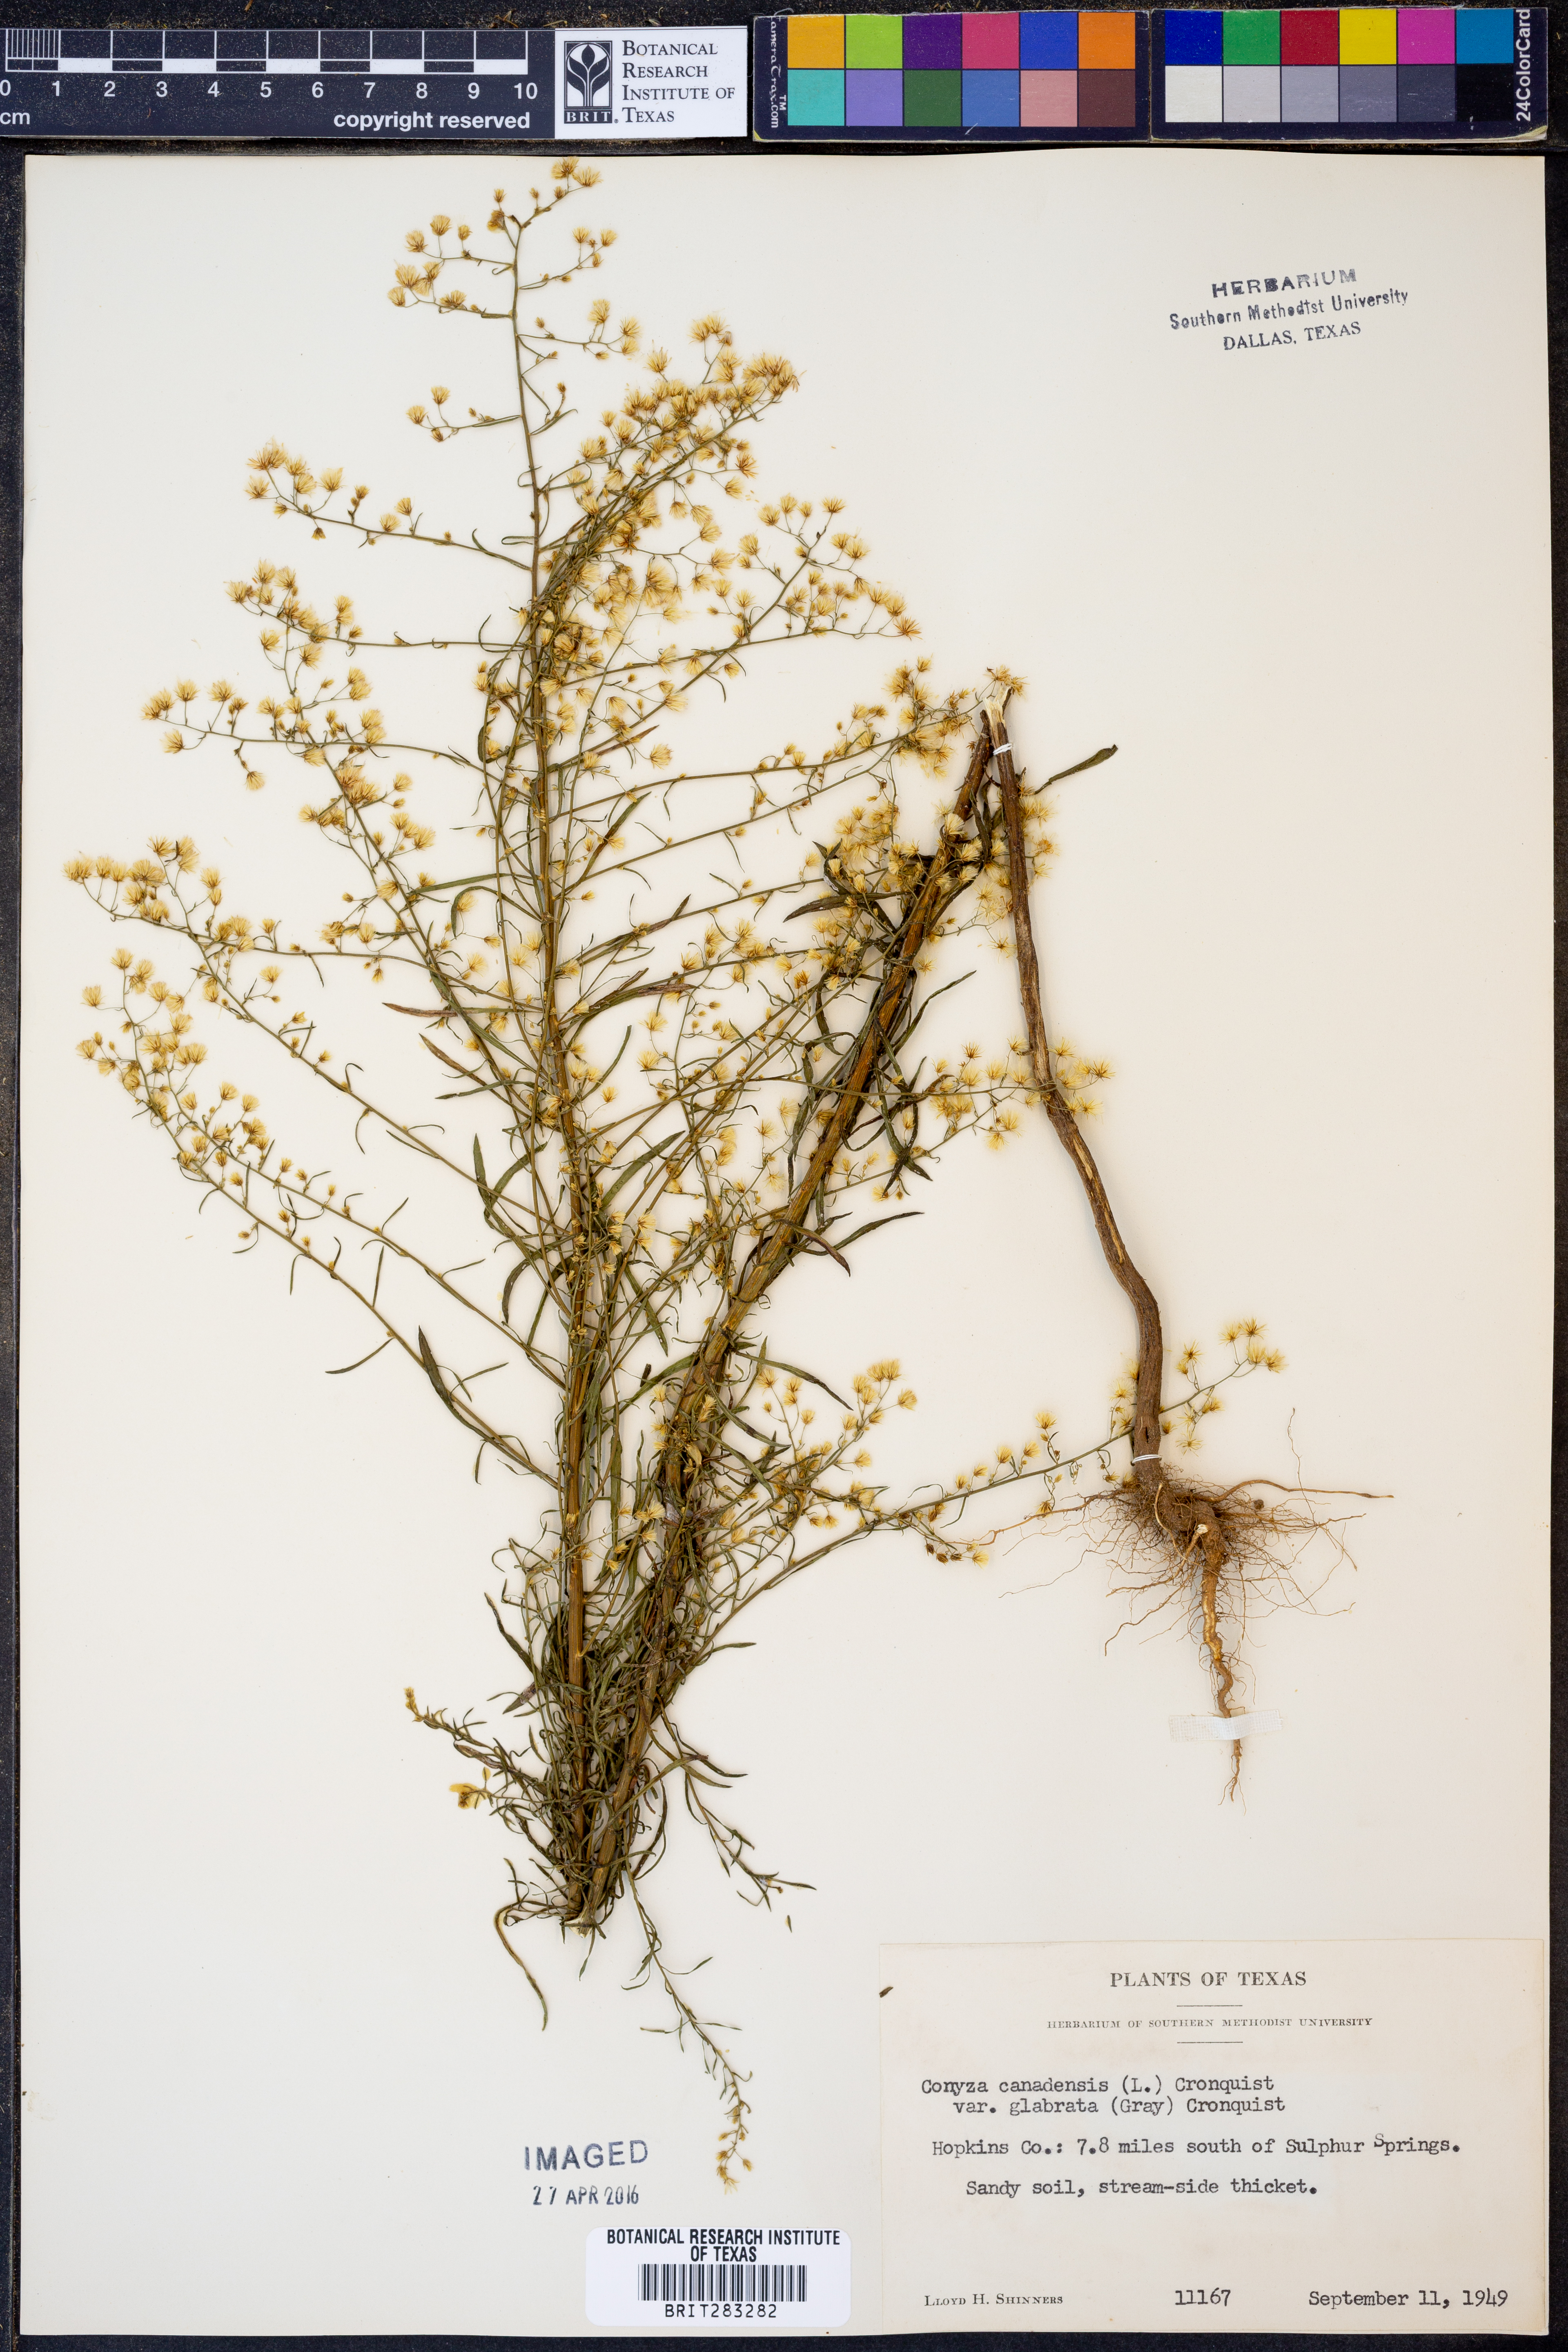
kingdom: Plantae
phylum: Tracheophyta
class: Magnoliopsida
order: Asterales
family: Asteraceae
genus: Erigeron
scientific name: Erigeron canadensis
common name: Canadian fleabane
